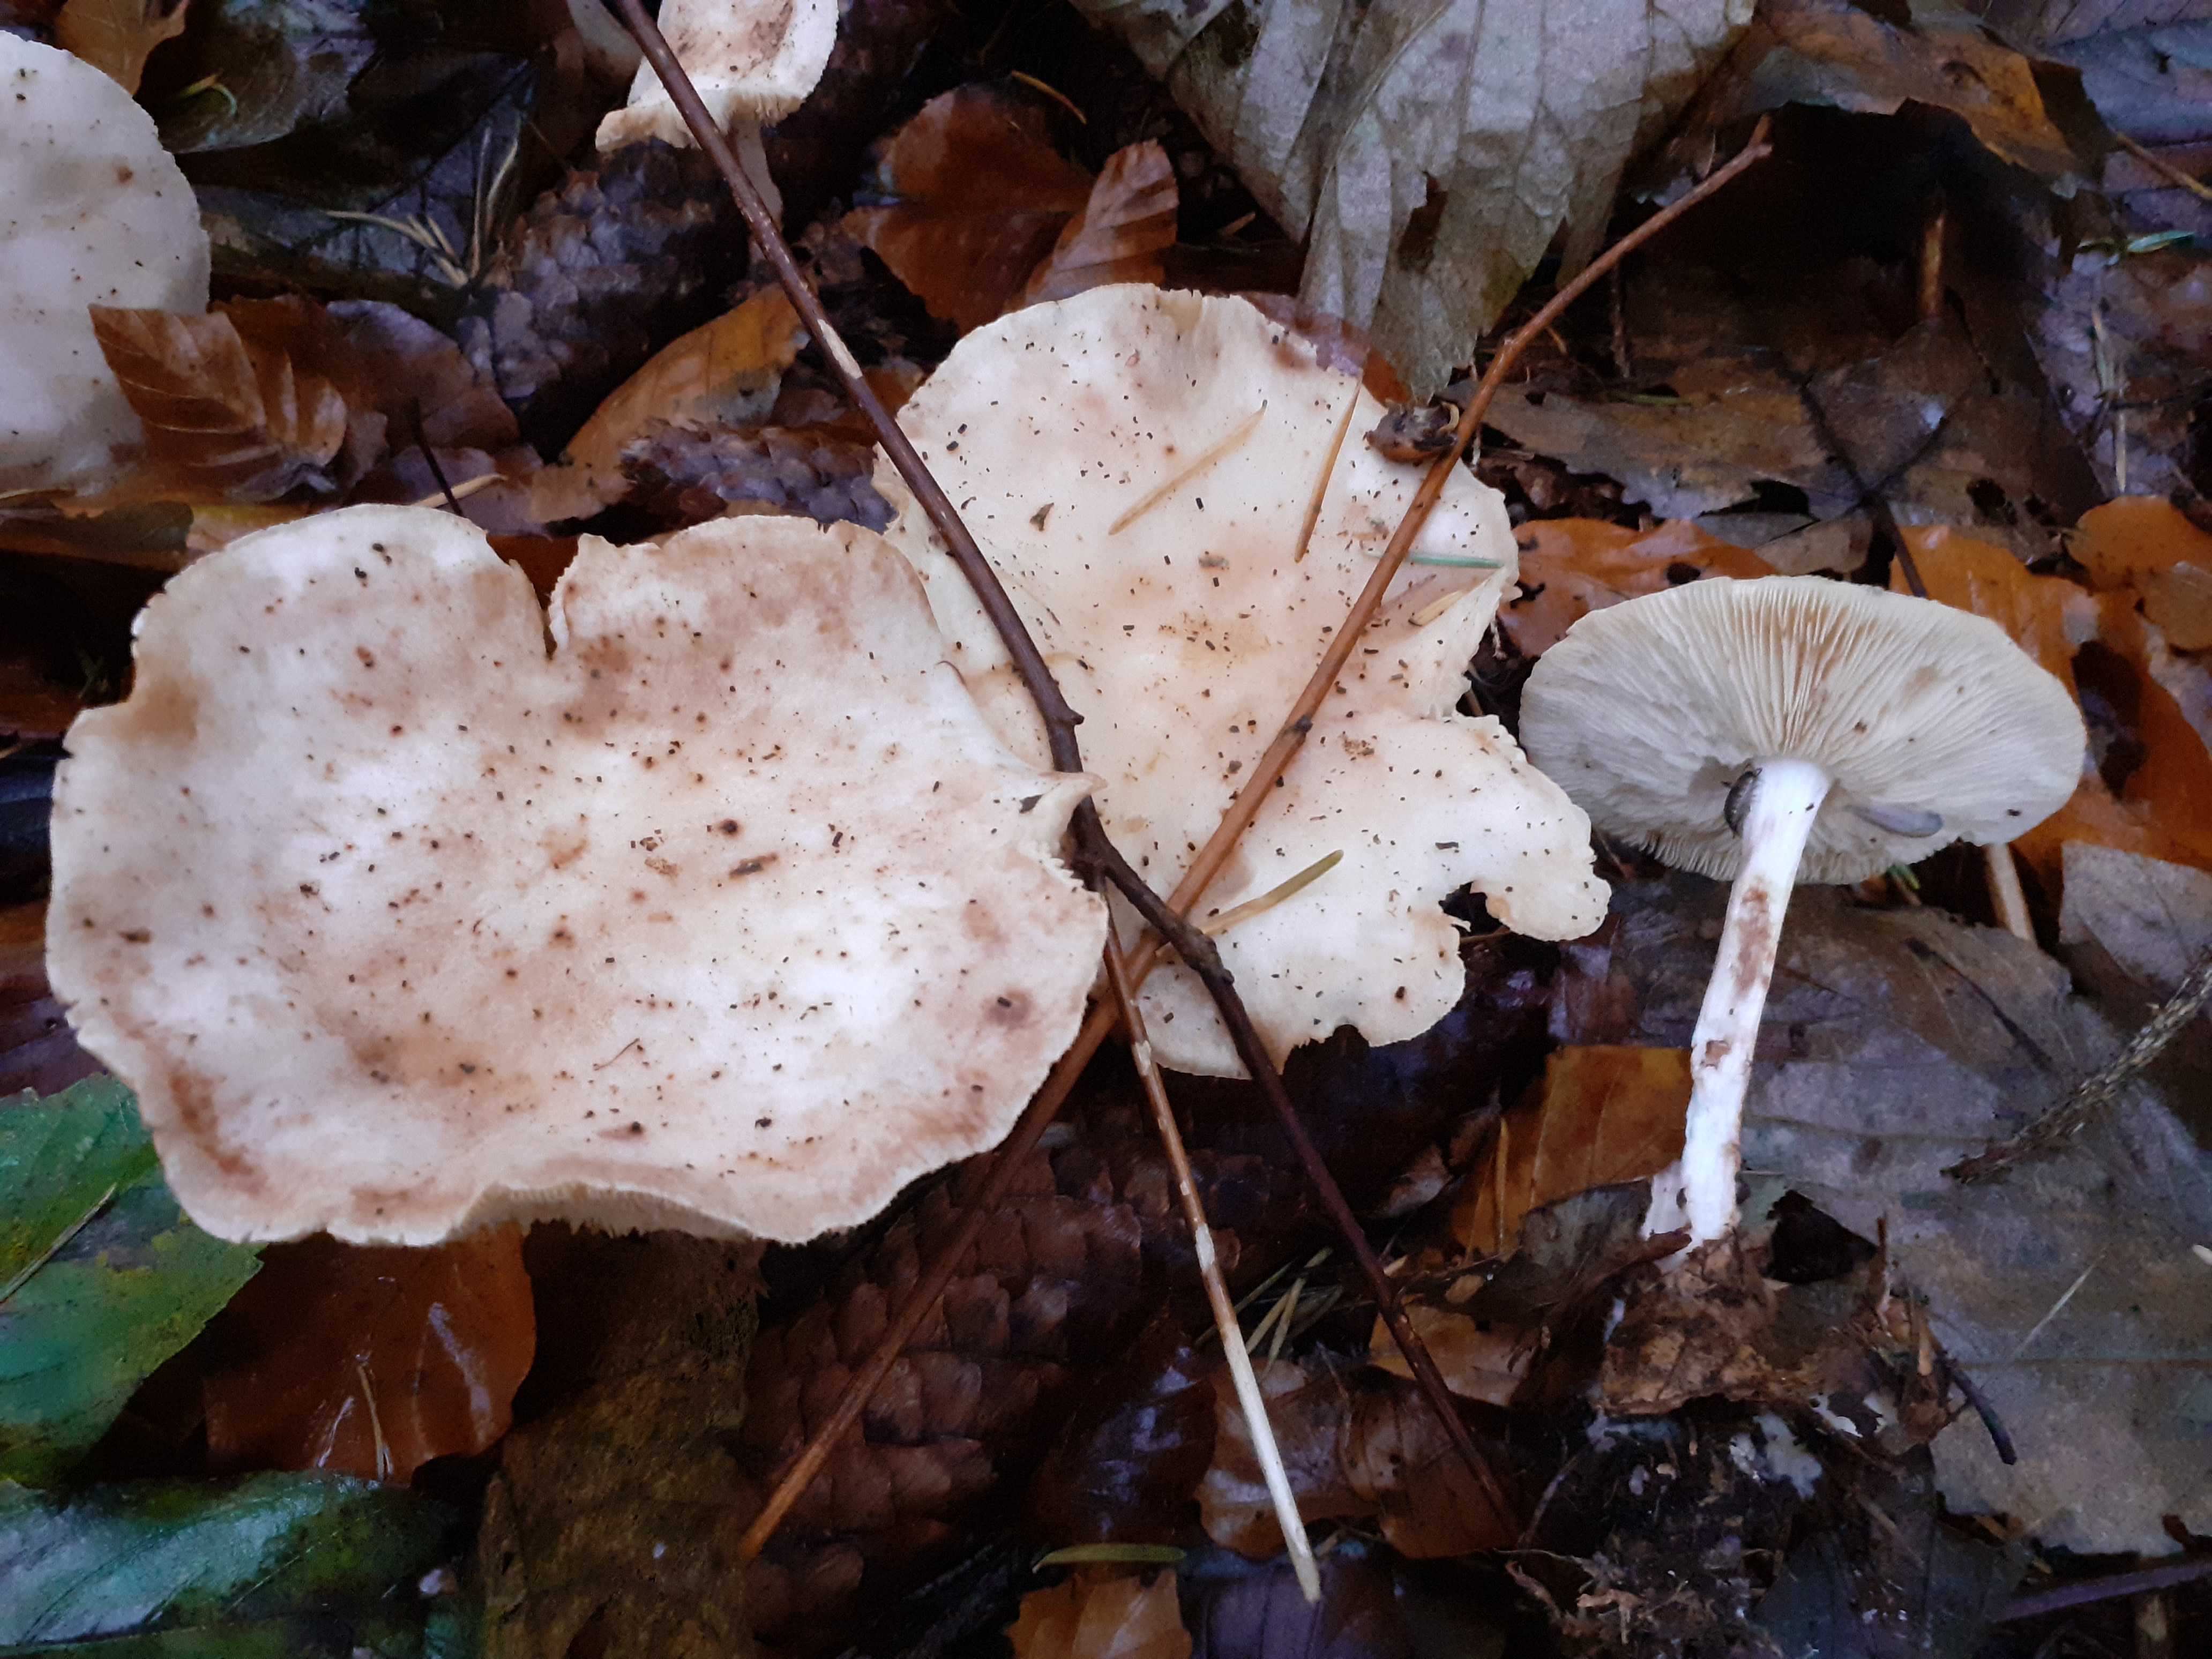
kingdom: Fungi
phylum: Basidiomycota
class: Agaricomycetes
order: Agaricales
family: Omphalotaceae
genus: Rhodocollybia
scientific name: Rhodocollybia maculata
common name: plettet fladhat
